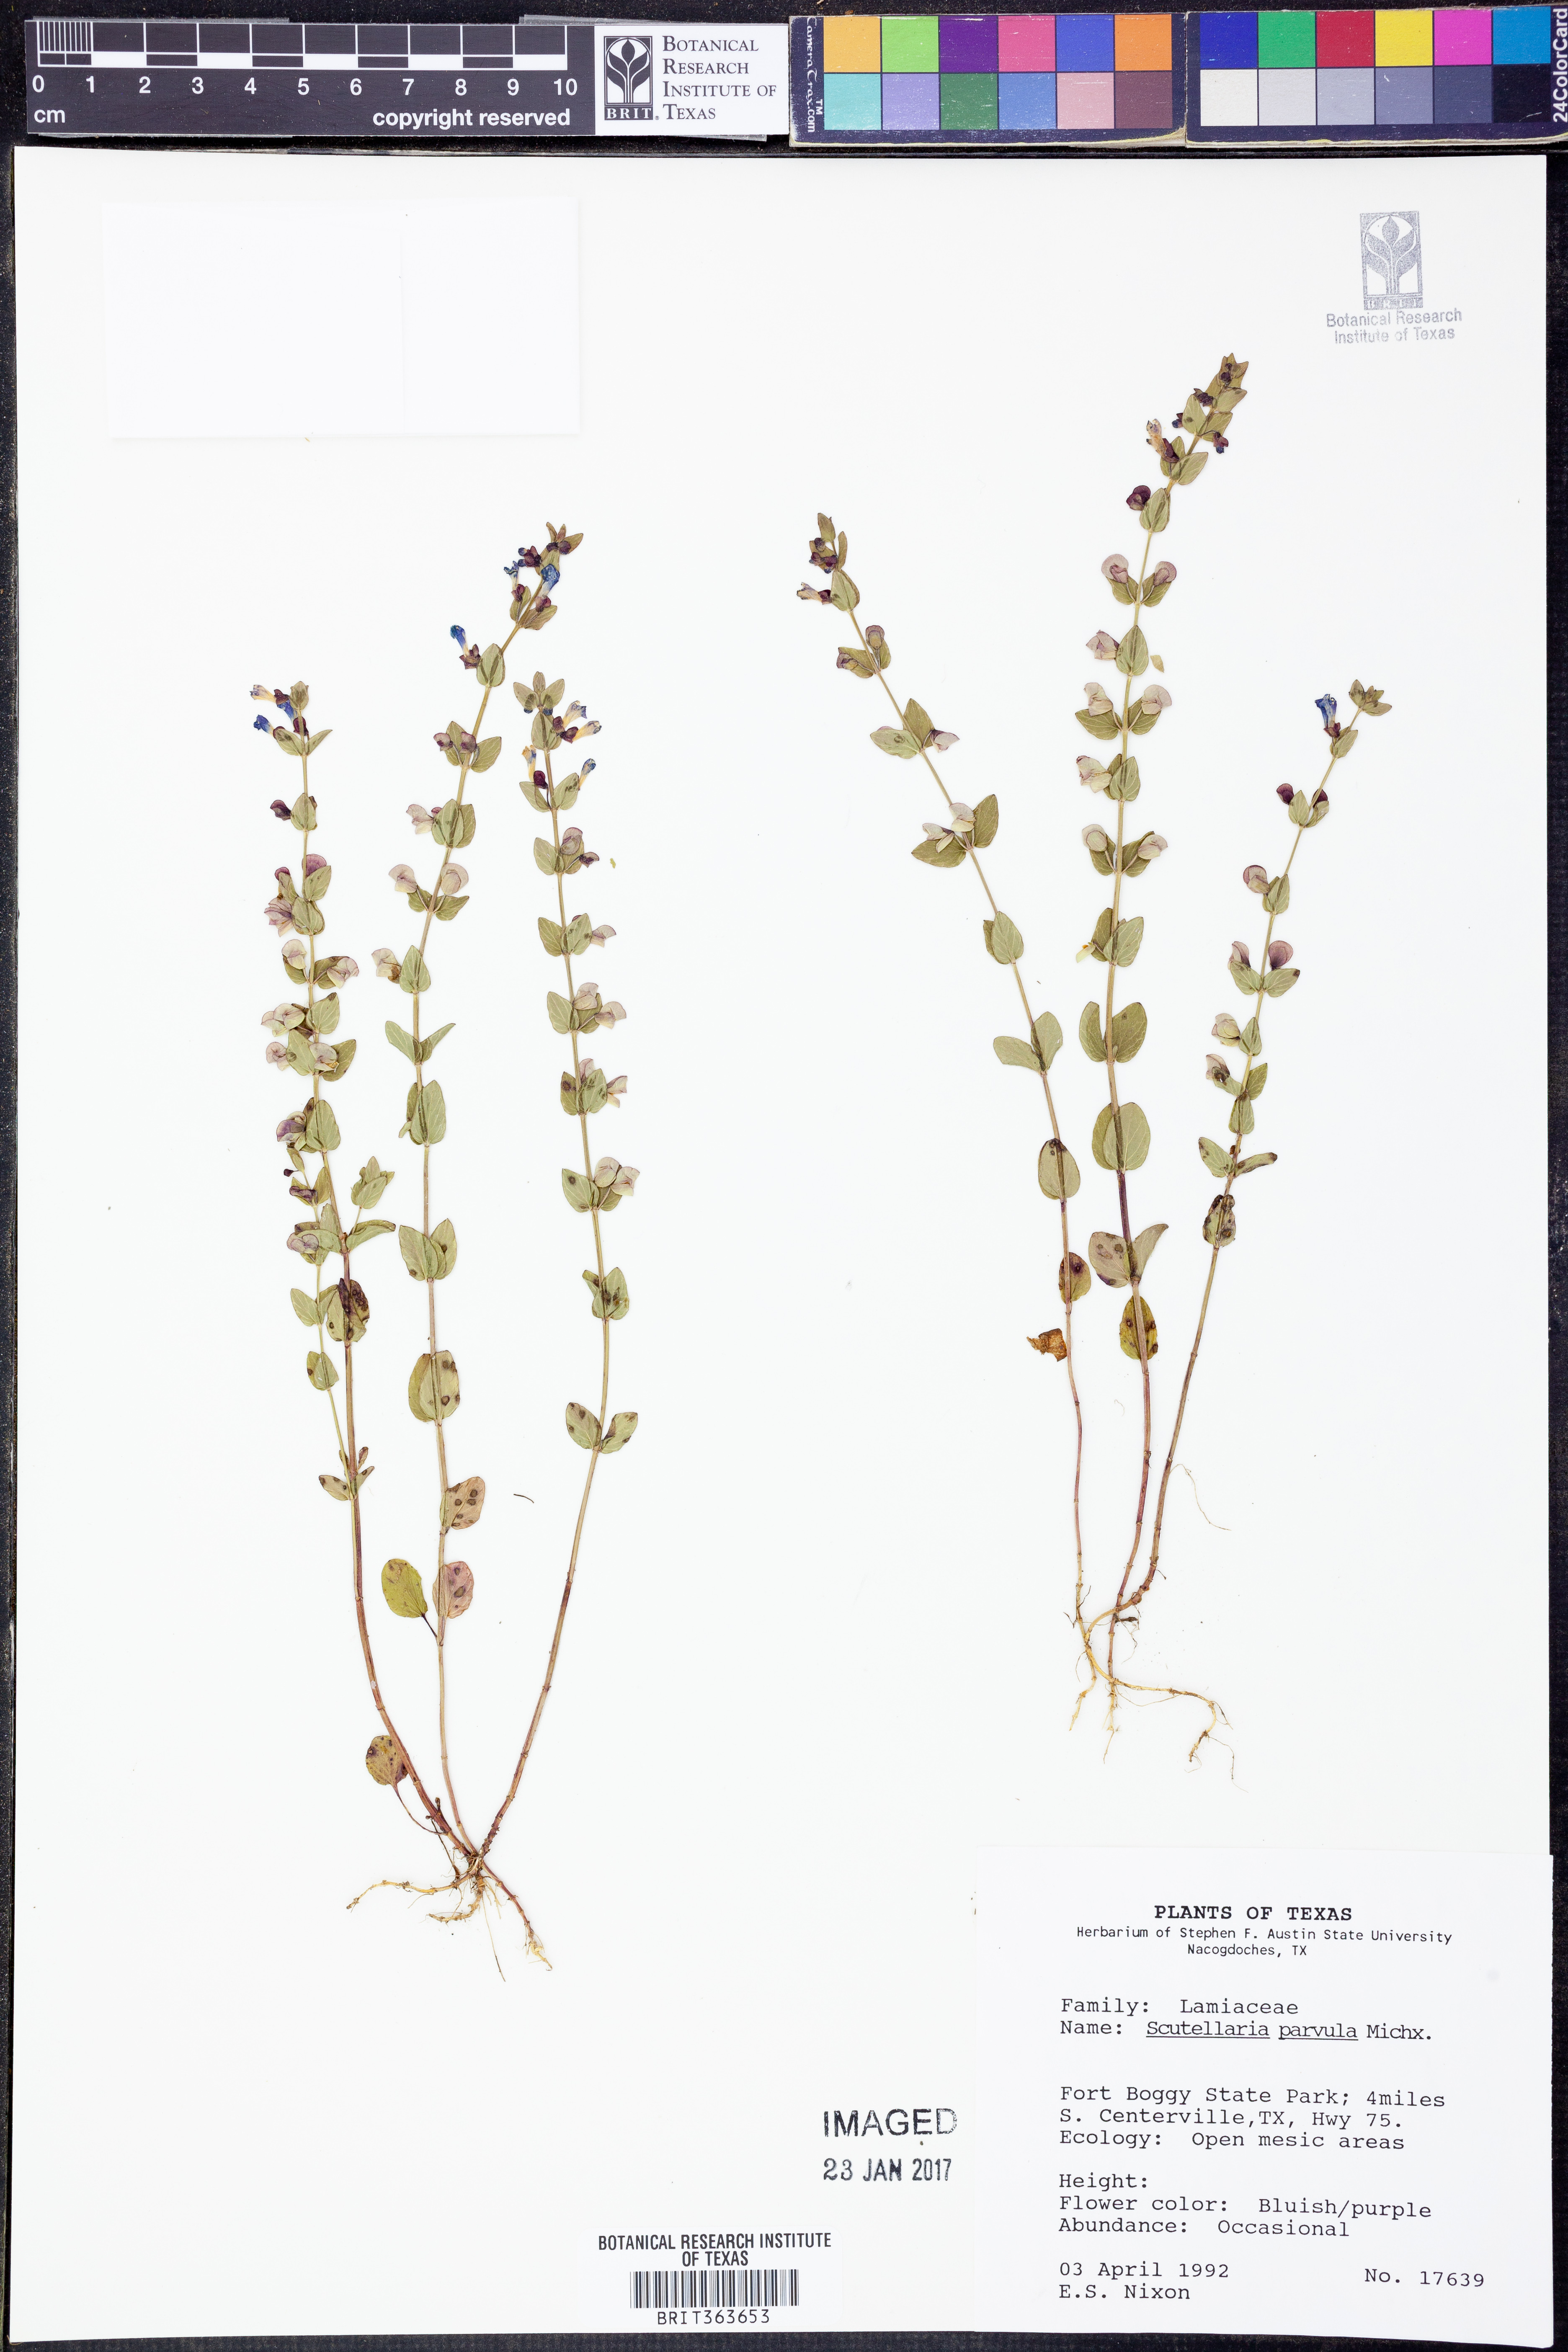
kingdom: Plantae
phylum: Tracheophyta
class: Magnoliopsida
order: Lamiales
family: Lamiaceae
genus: Scutellaria
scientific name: Scutellaria parvula
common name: Little scullcap
